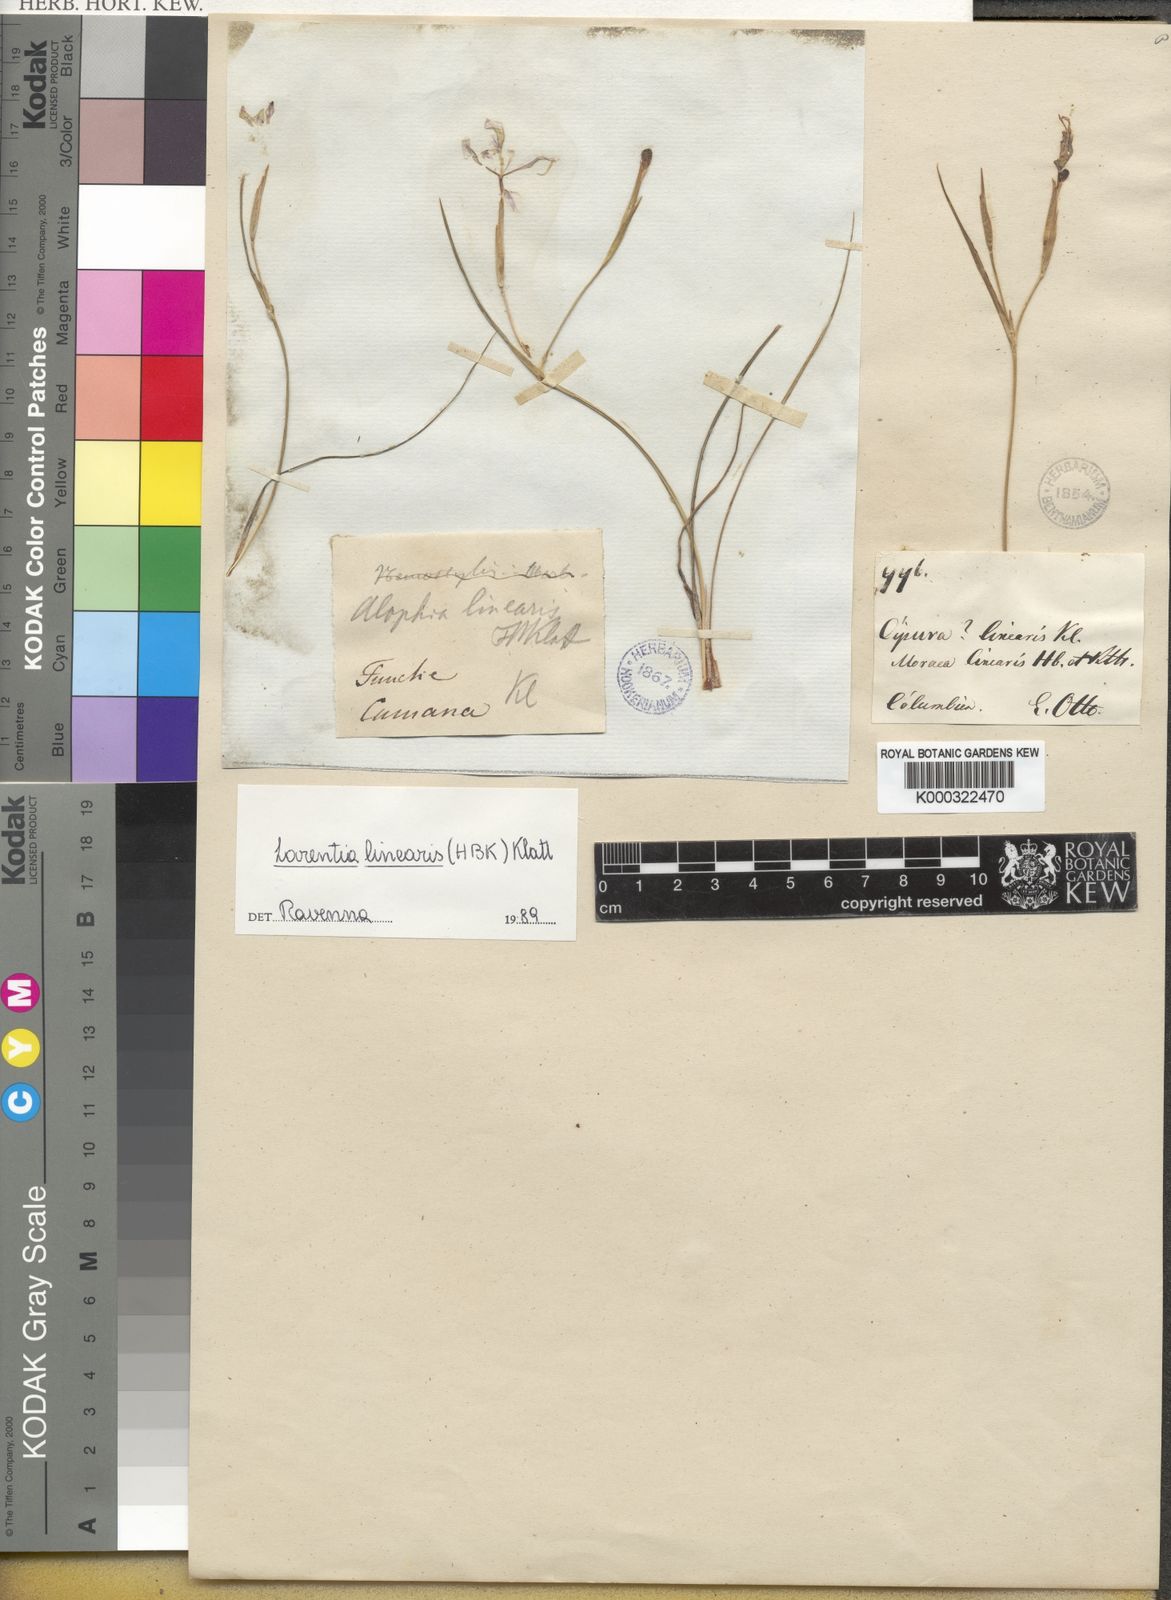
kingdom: Plantae
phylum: Tracheophyta
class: Liliopsida
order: Asparagales
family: Iridaceae
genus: Larentia
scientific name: Larentia linearis
